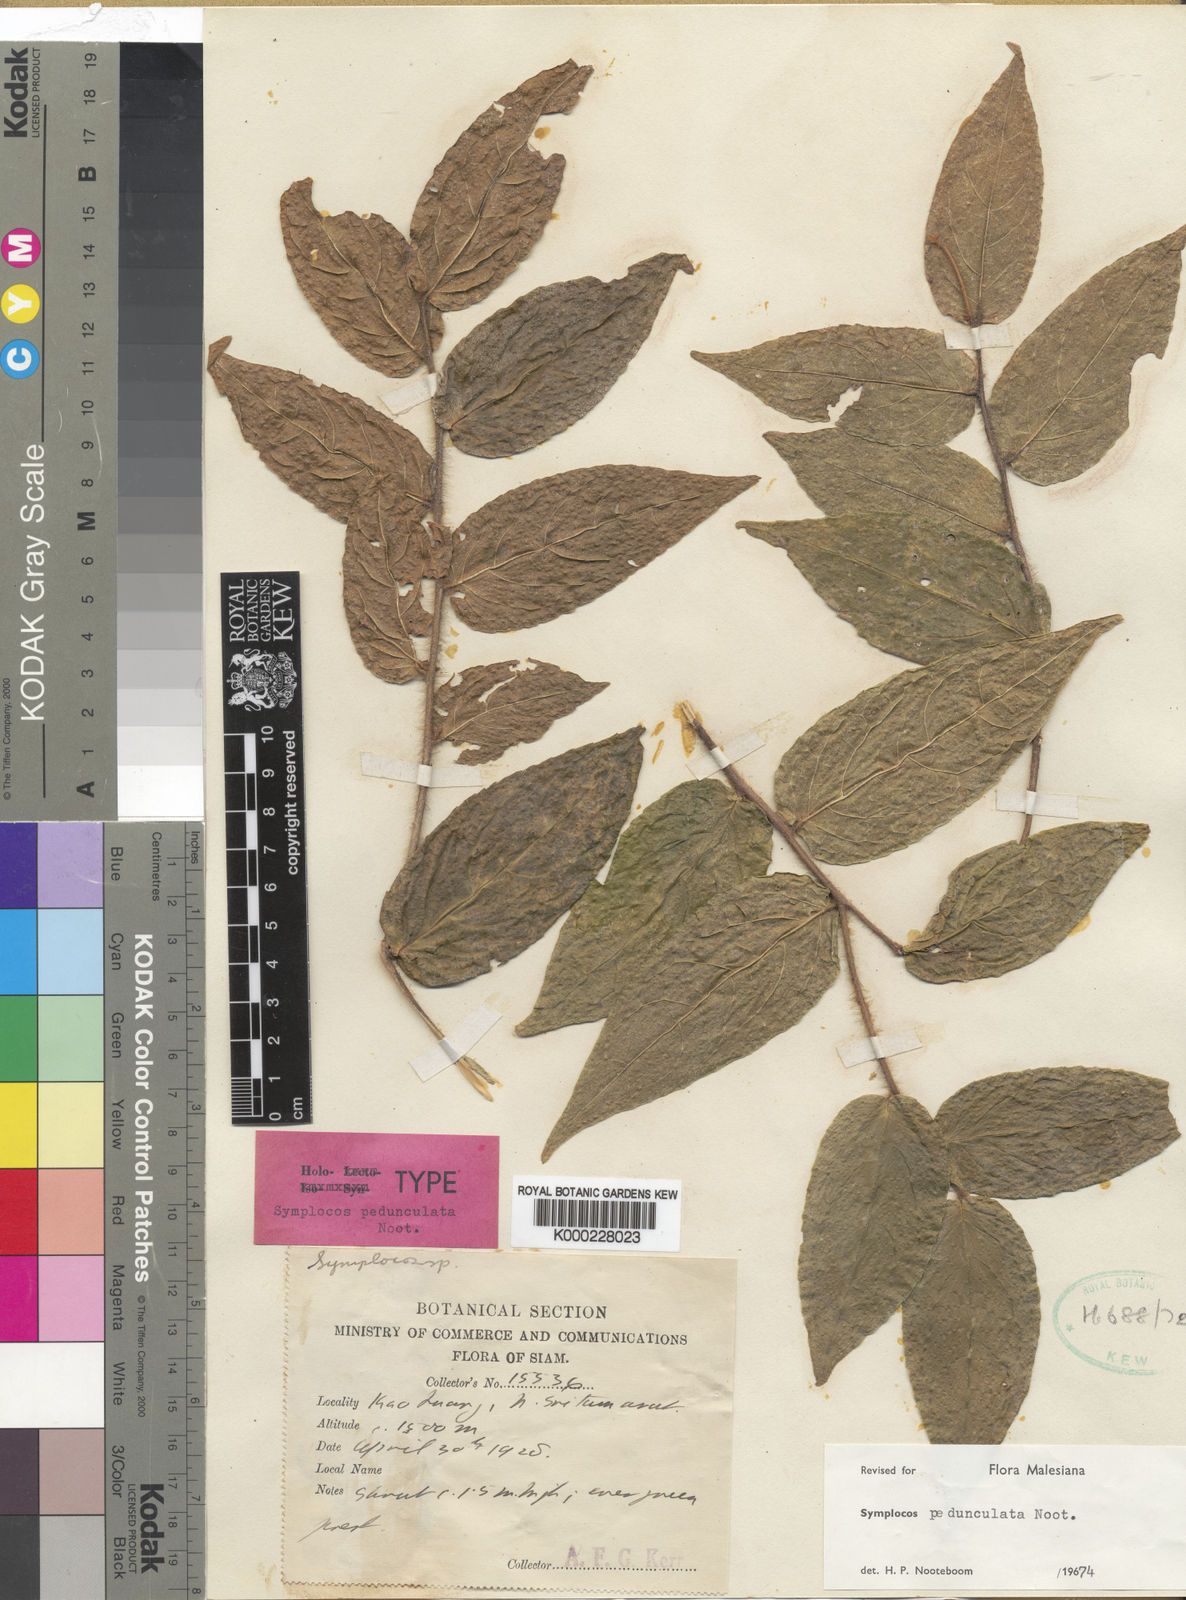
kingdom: Plantae
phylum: Tracheophyta
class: Magnoliopsida
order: Ericales
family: Symplocaceae
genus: Symplocos
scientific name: Symplocos pedunculata
